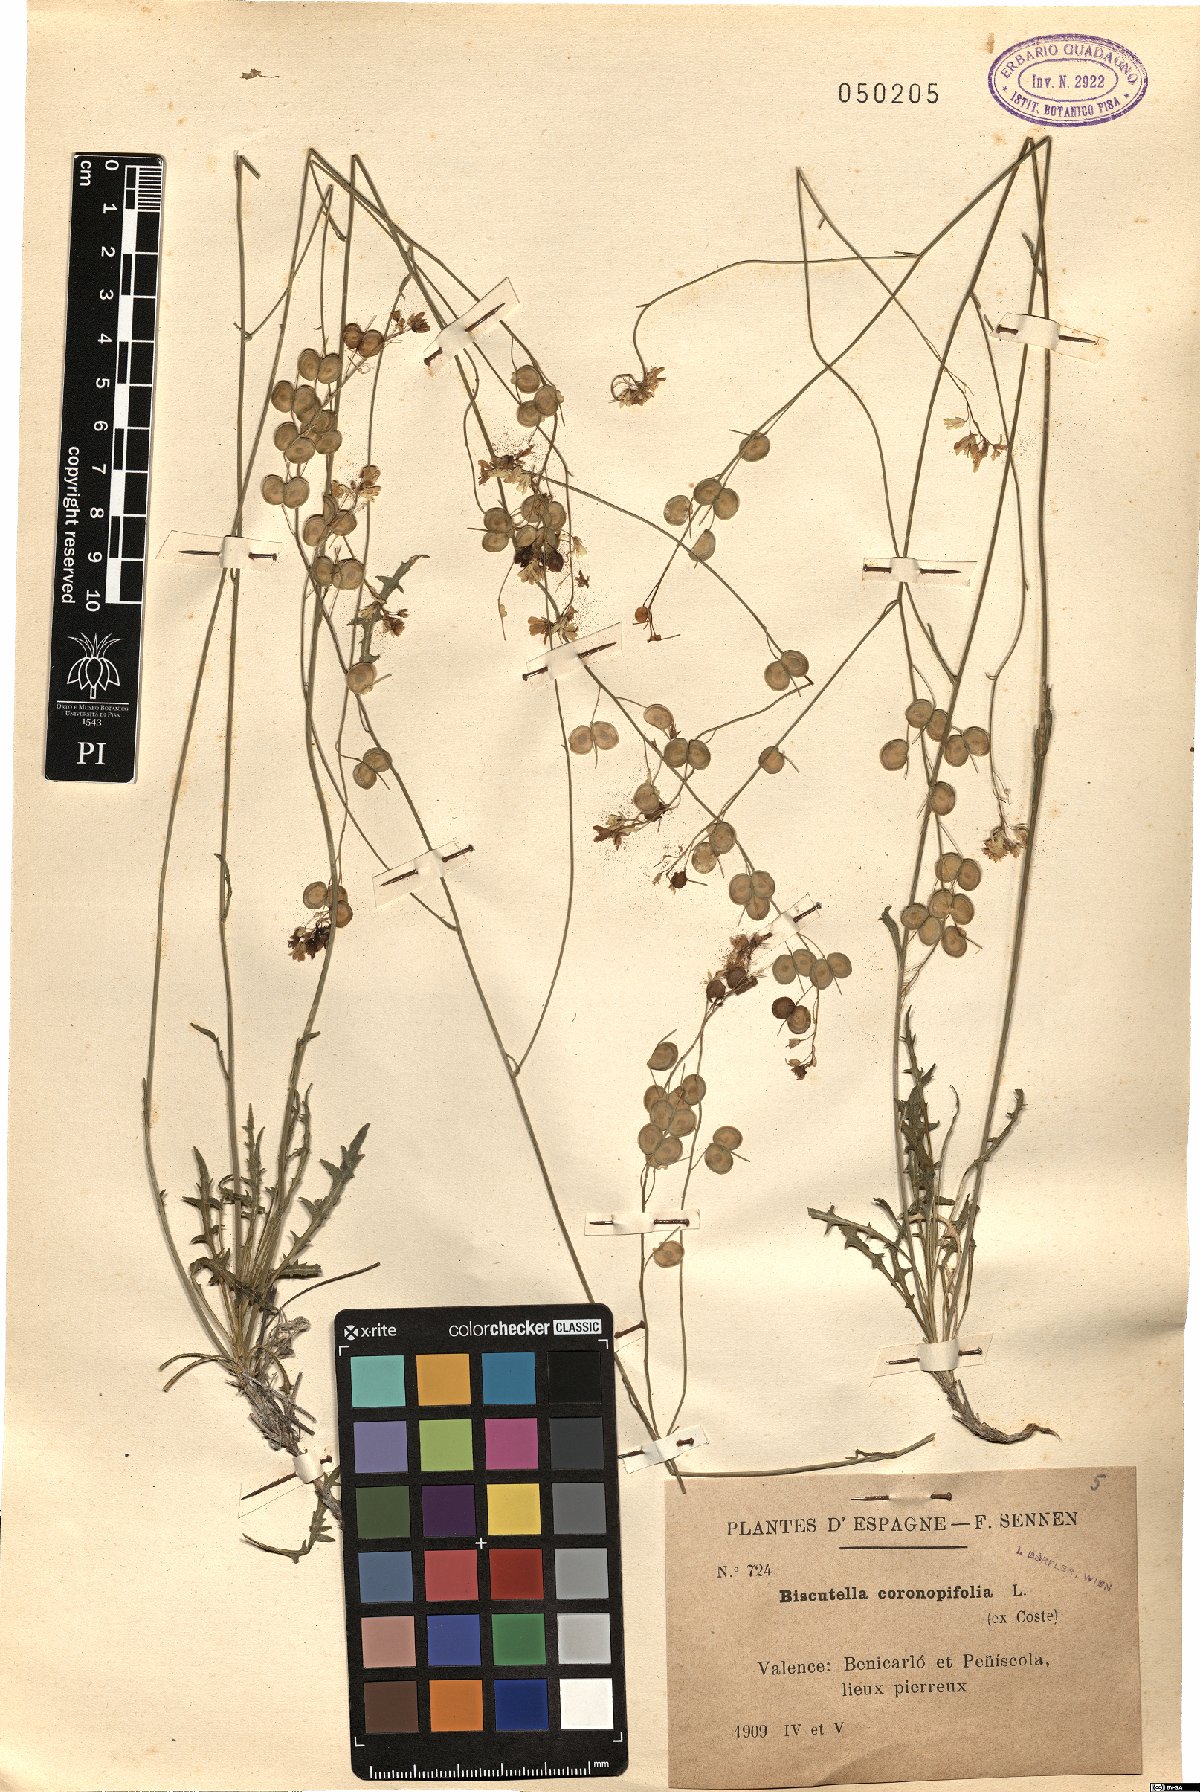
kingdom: Plantae
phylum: Tracheophyta
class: Magnoliopsida
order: Brassicales
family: Brassicaceae
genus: Biscutella
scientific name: Biscutella coronopifolia
